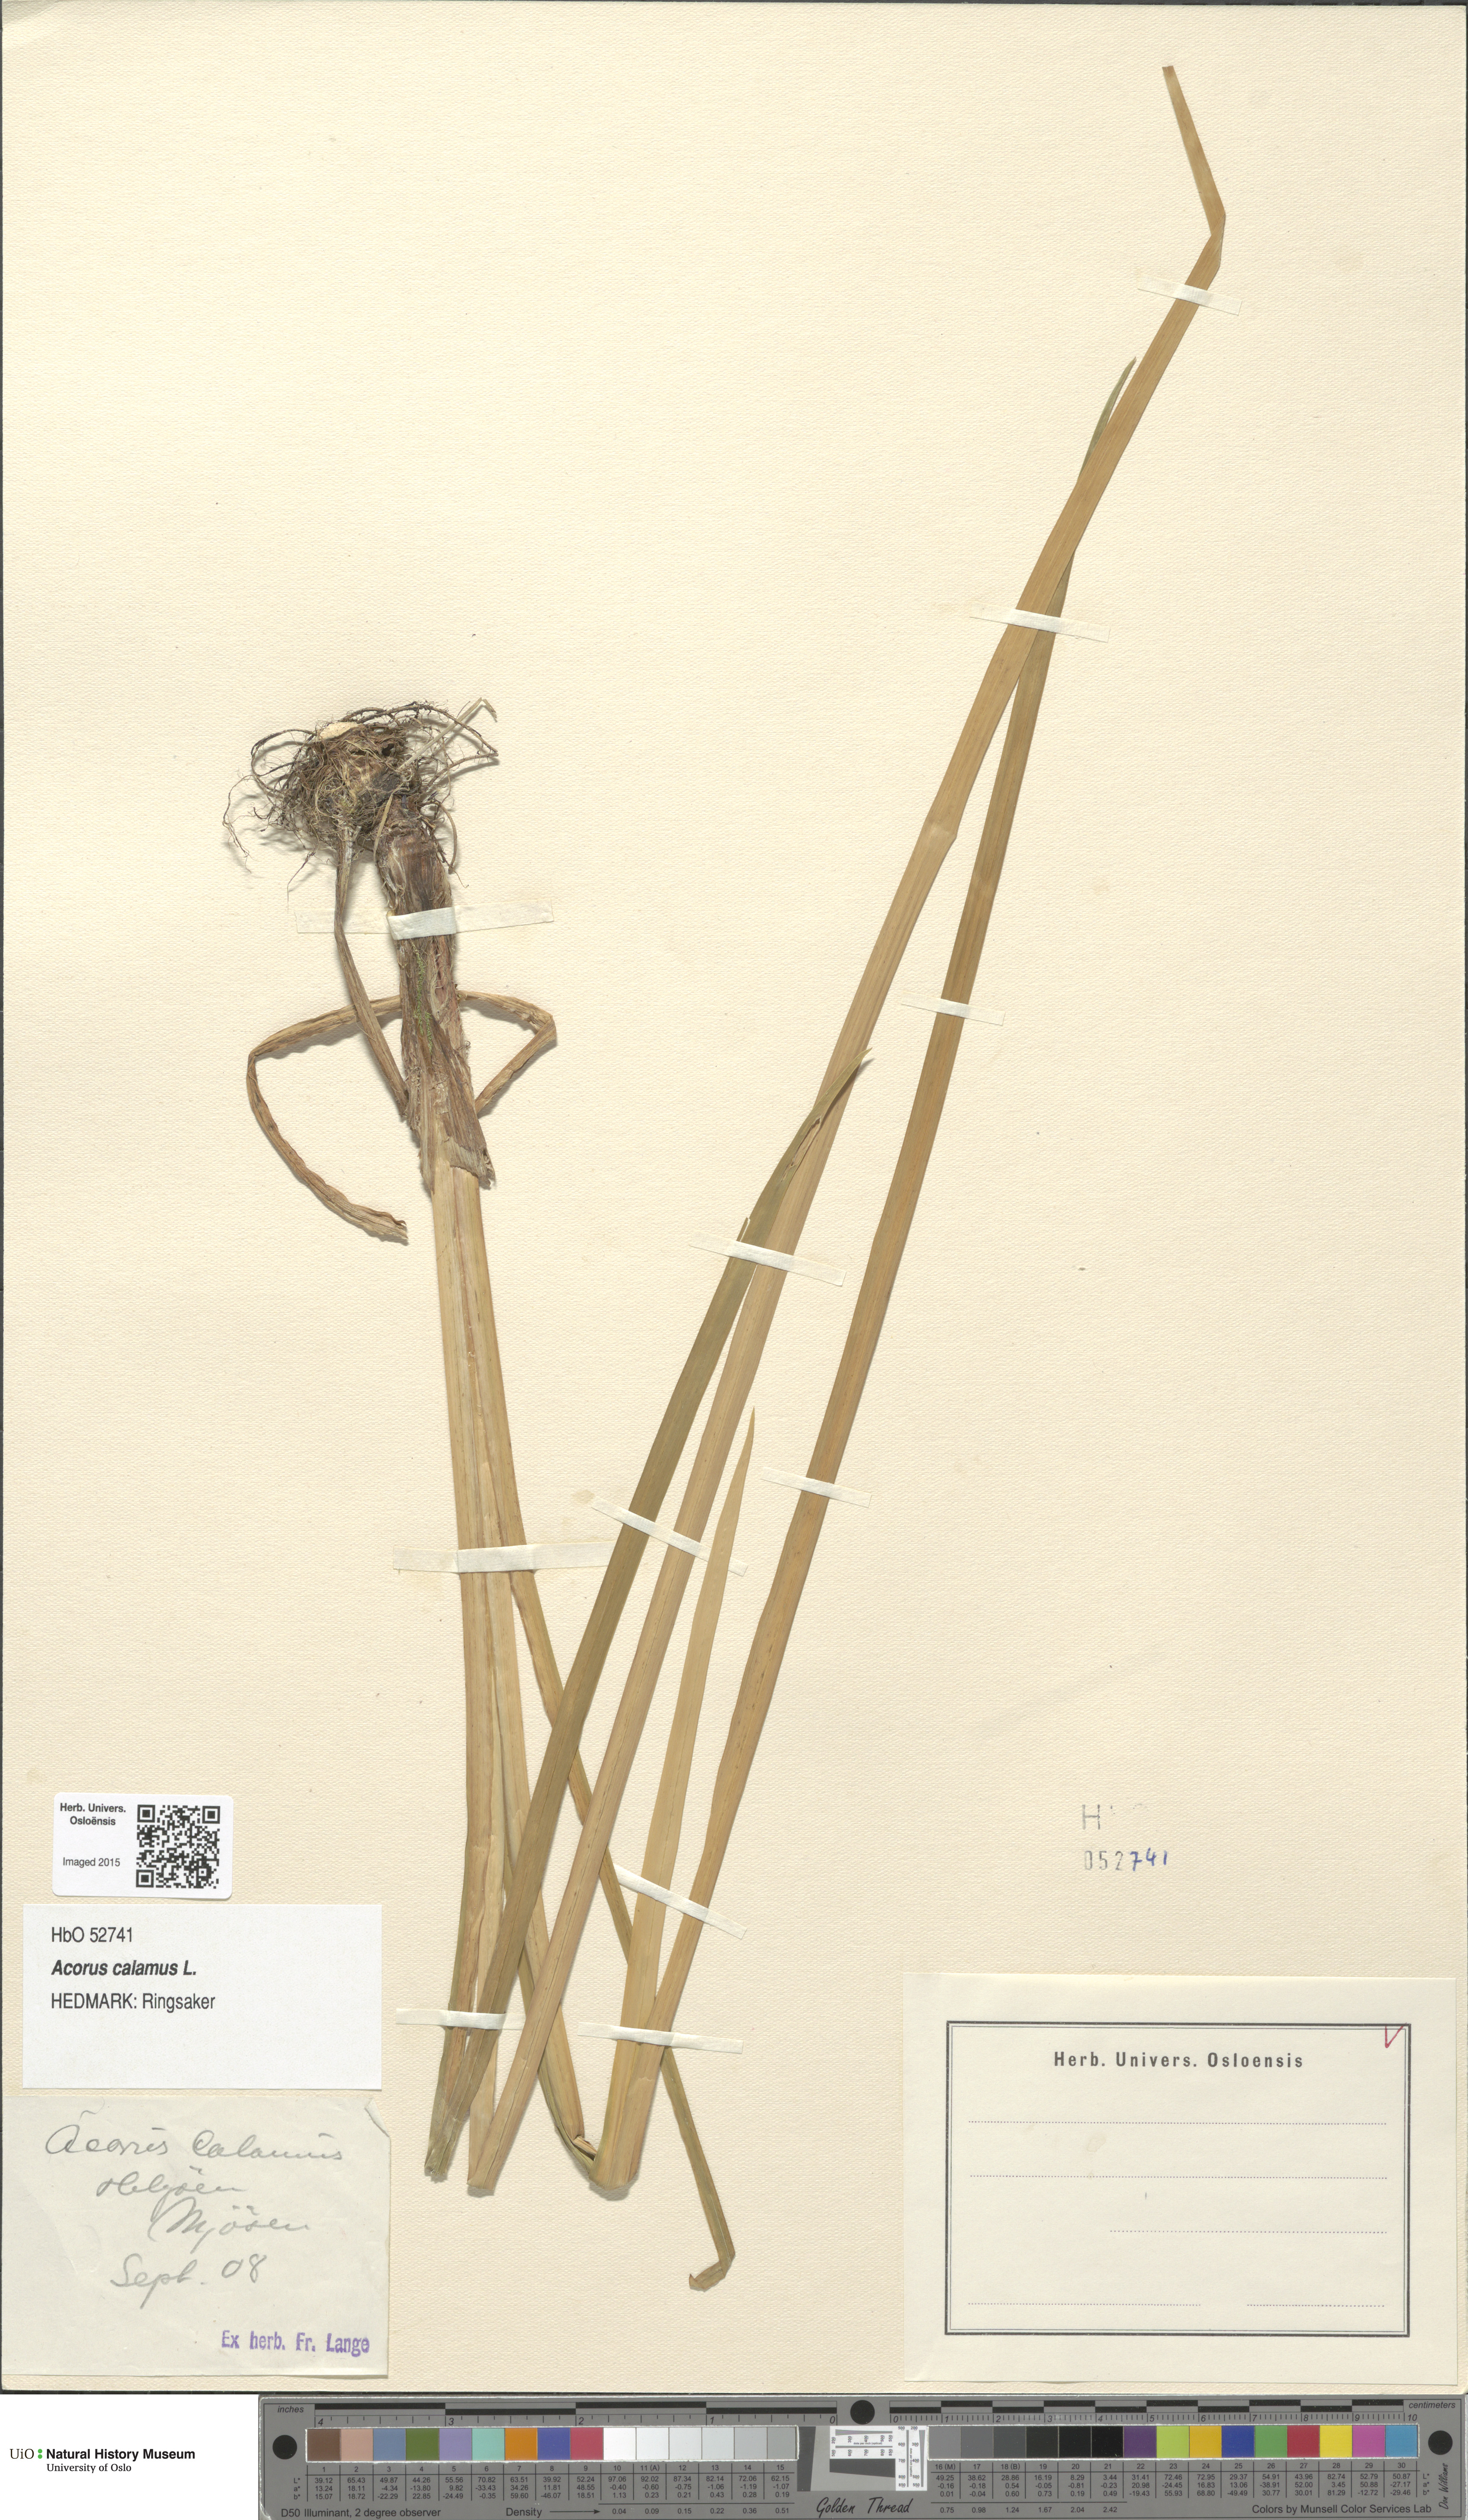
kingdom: Plantae
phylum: Tracheophyta
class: Liliopsida
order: Acorales
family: Acoraceae
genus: Acorus
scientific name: Acorus calamus
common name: Sweet-flag
